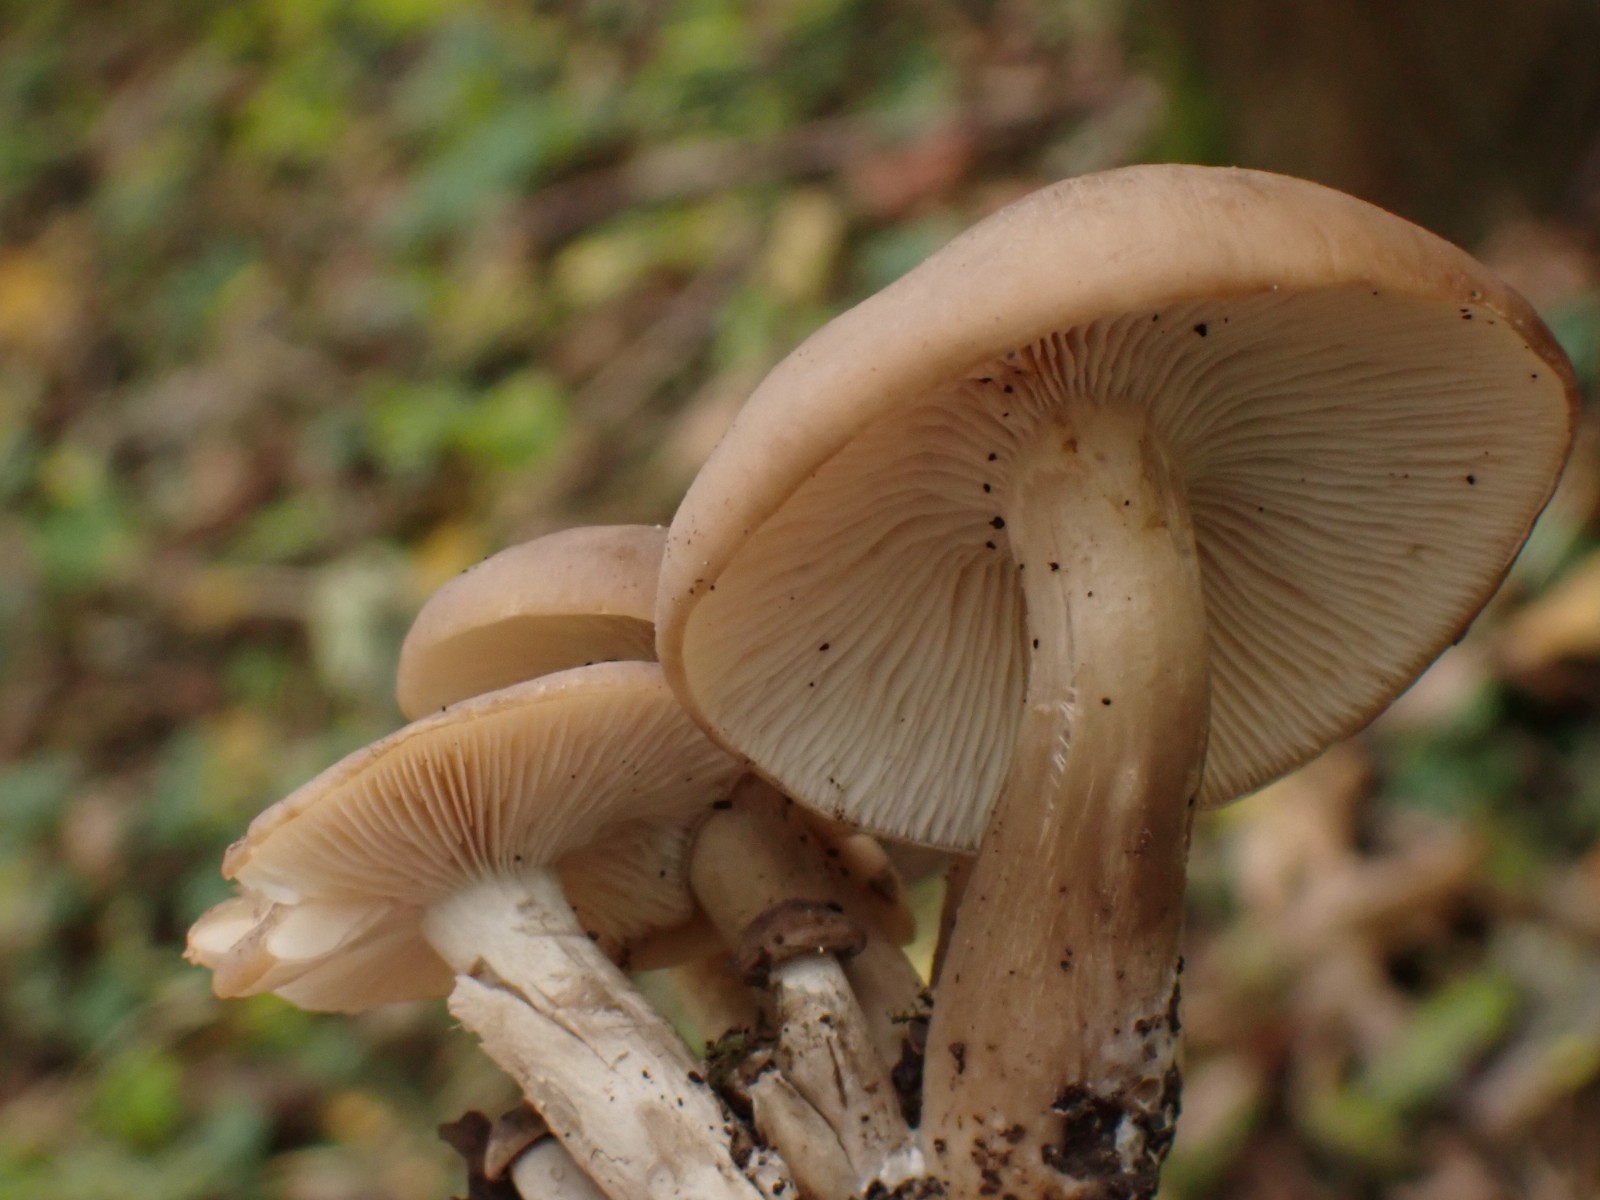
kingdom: Fungi
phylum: Basidiomycota
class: Agaricomycetes
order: Agaricales
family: Lyophyllaceae
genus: Lyophyllum
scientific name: Lyophyllum decastes
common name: røggrå gråblad
